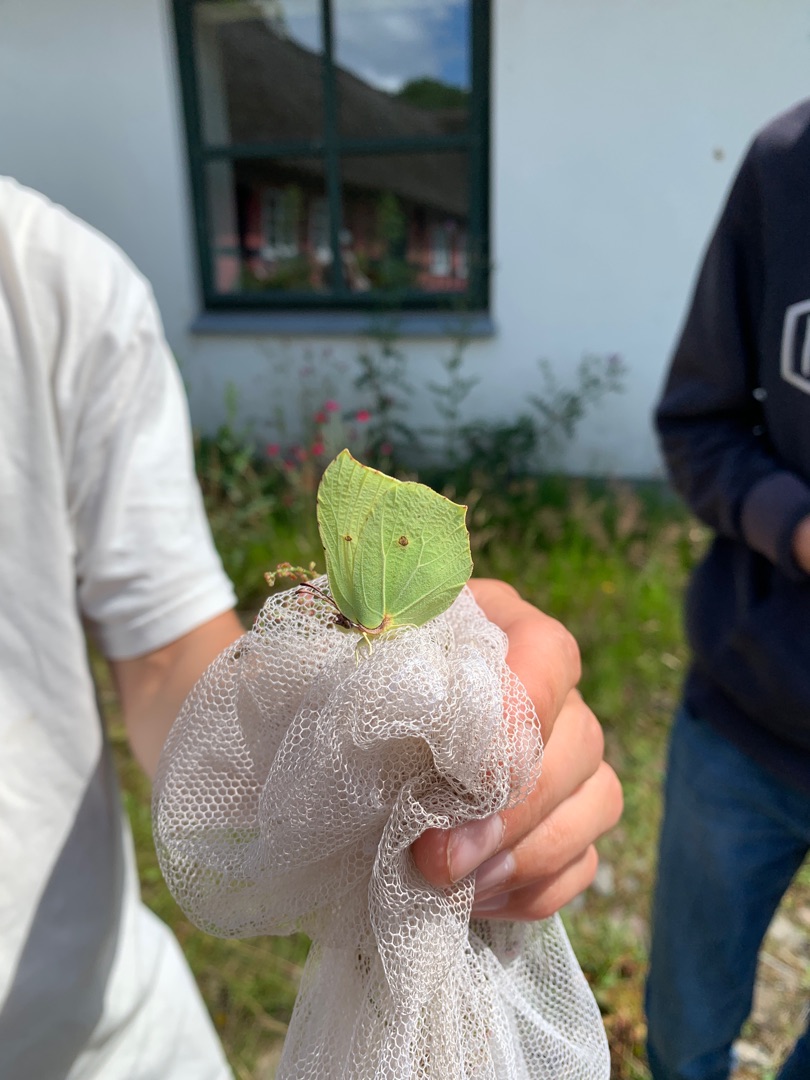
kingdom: Animalia
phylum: Arthropoda
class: Insecta
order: Lepidoptera
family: Pieridae
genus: Gonepteryx
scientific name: Gonepteryx rhamni
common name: Citronsommerfugl
